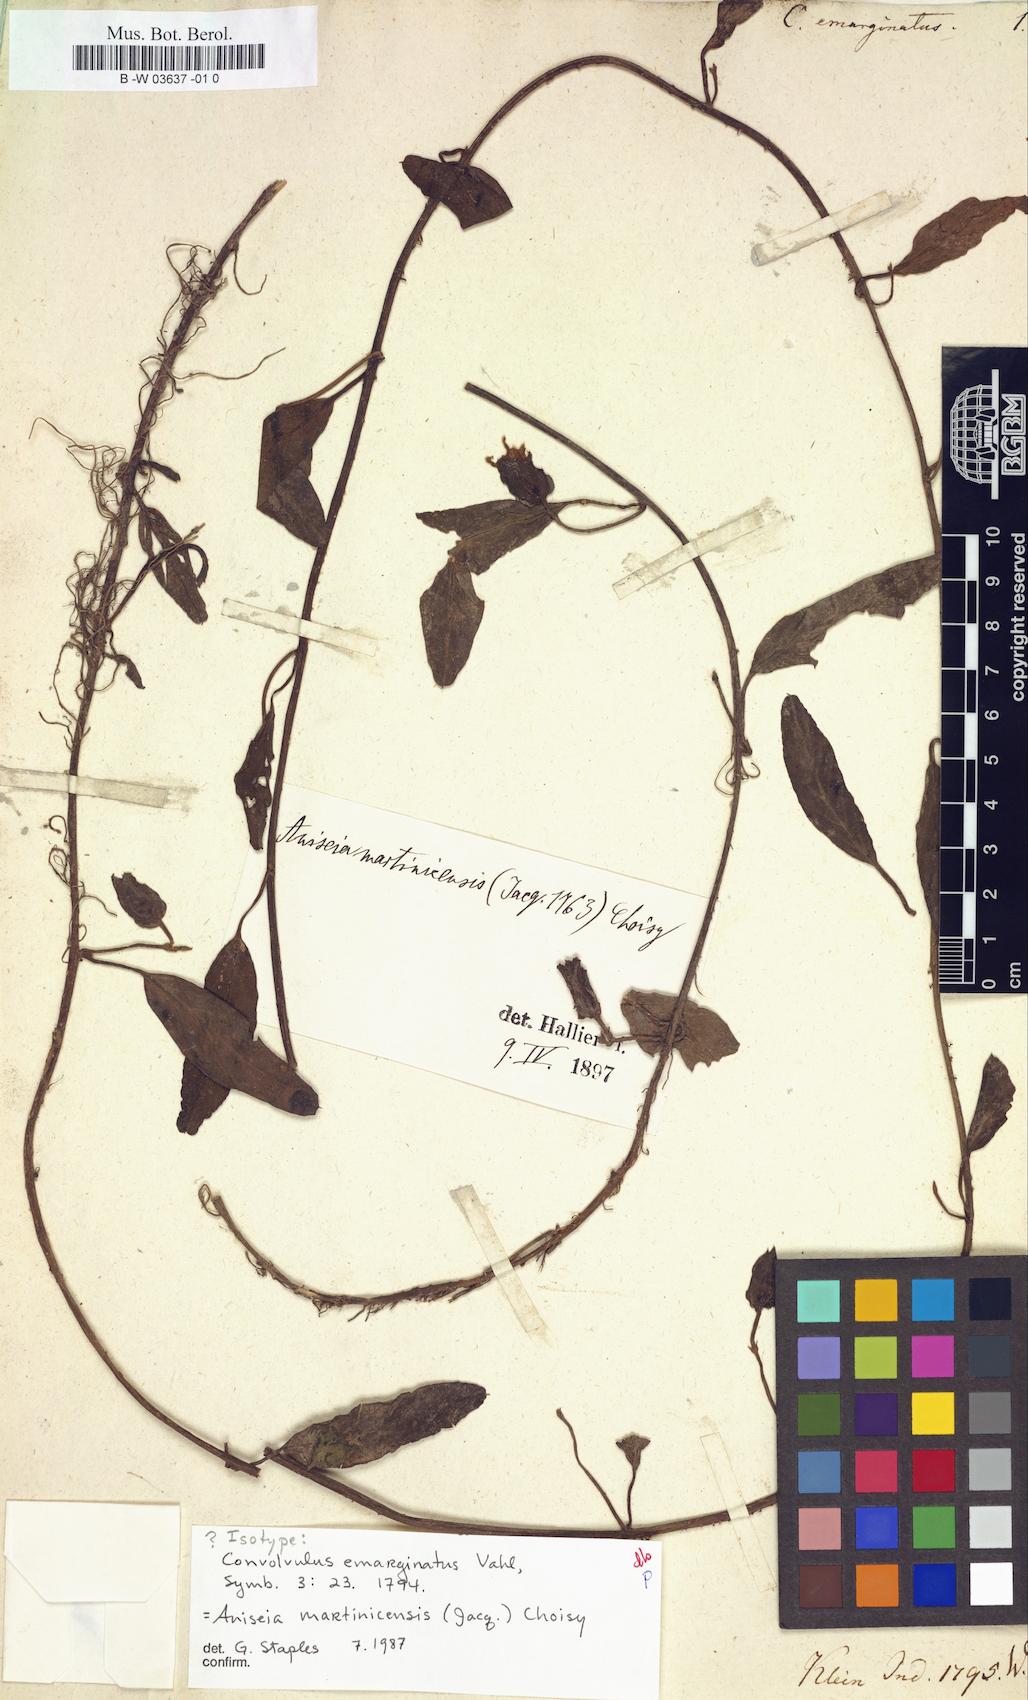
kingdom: Plantae
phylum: Tracheophyta
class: Magnoliopsida
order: Solanales
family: Convolvulaceae
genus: Aniseia
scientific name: Aniseia martinicensis
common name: Kulayadambu
